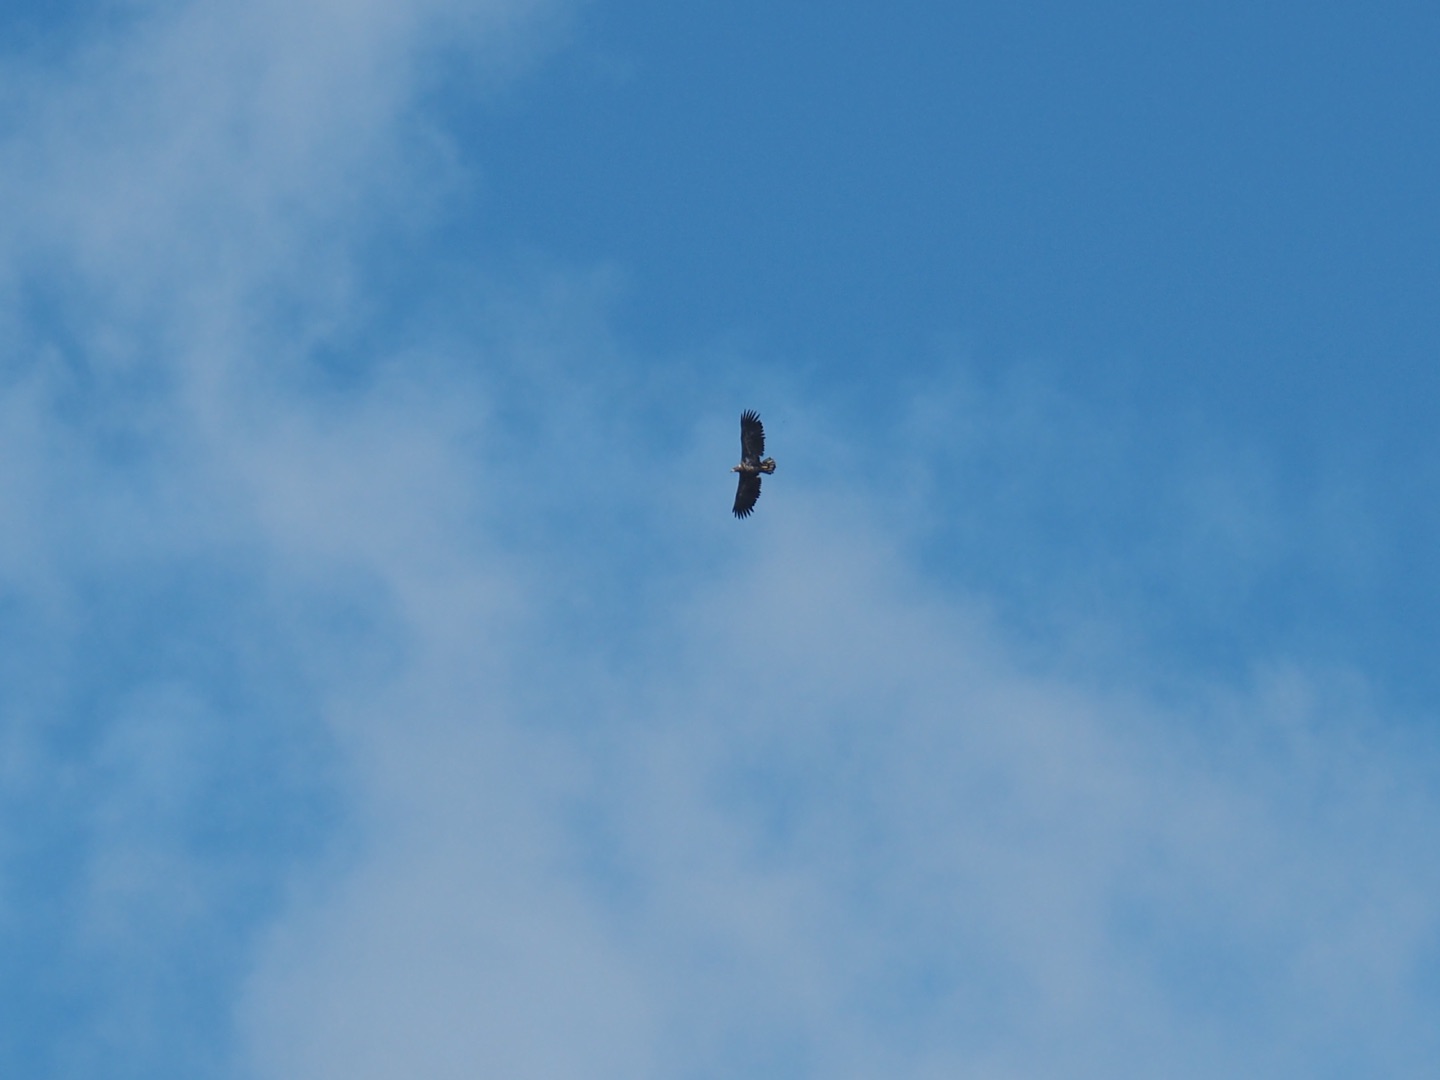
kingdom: Animalia
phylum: Chordata
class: Aves
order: Accipitriformes
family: Accipitridae
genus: Haliaeetus
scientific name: Haliaeetus albicilla
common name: Havørn
